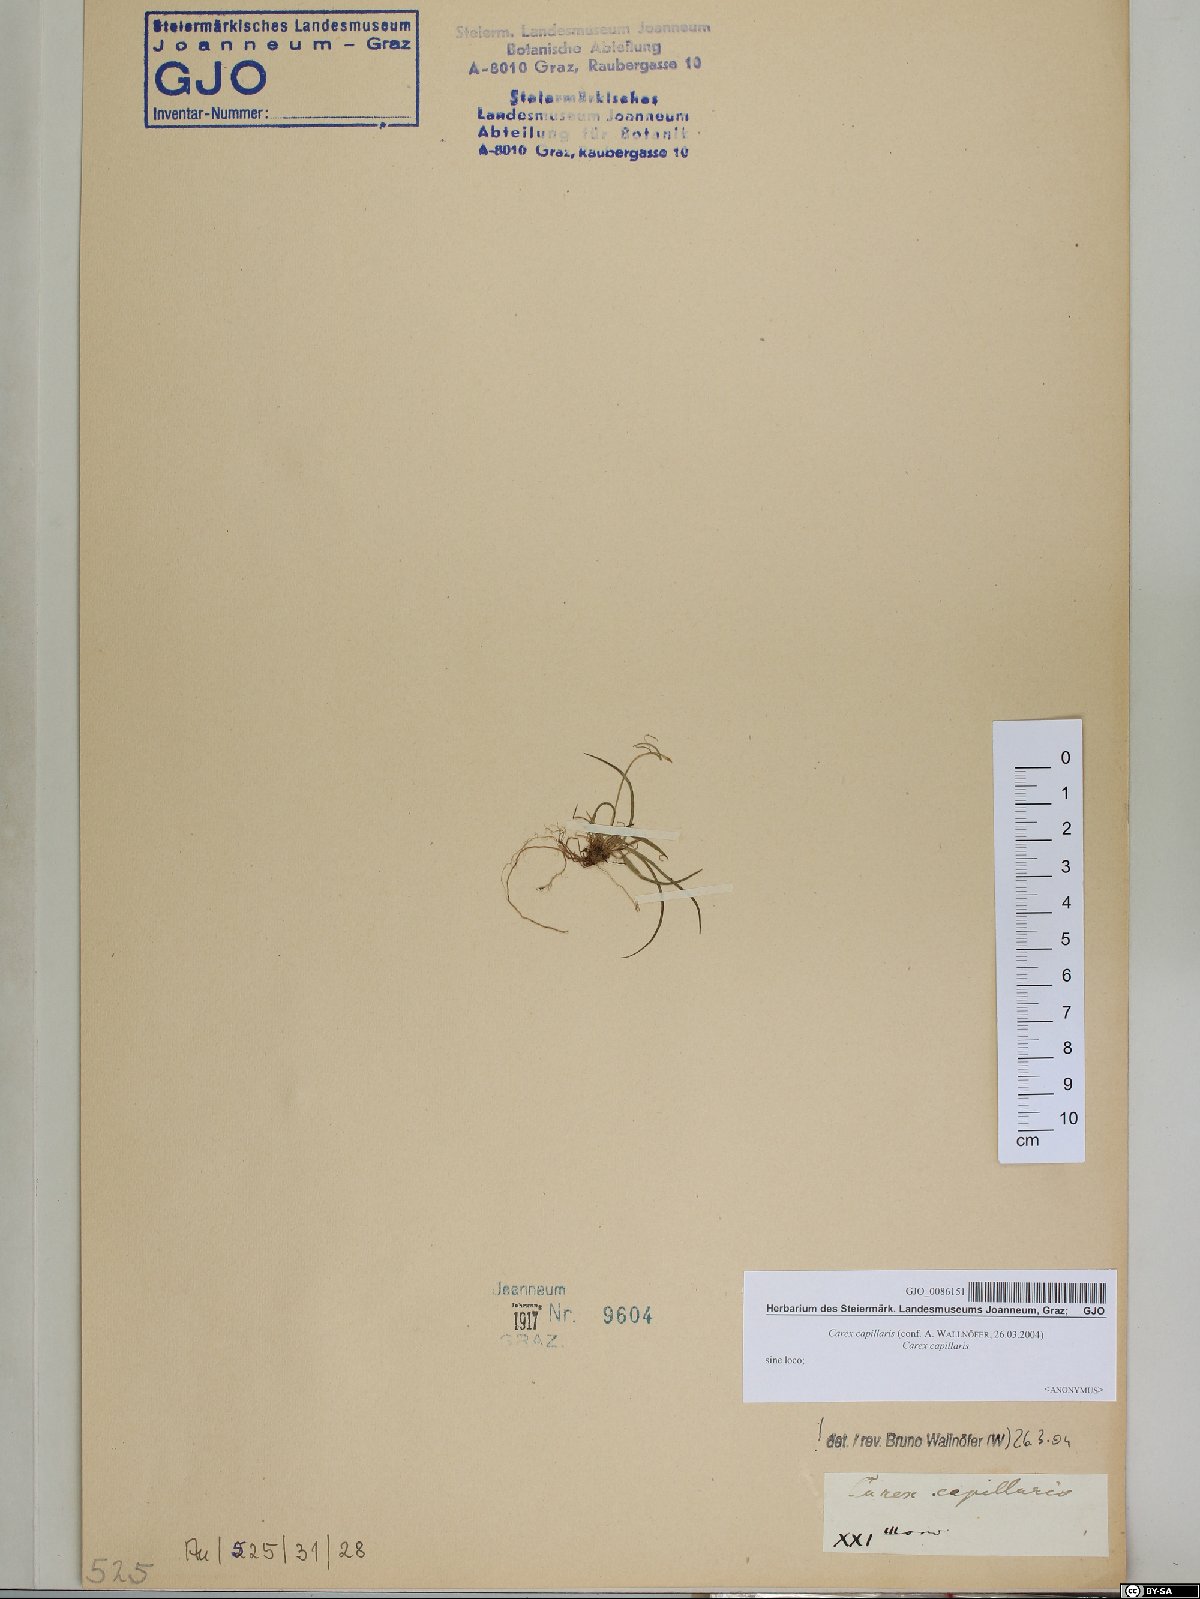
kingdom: Plantae
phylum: Tracheophyta
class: Liliopsida
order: Poales
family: Cyperaceae
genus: Carex
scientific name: Carex capillaris
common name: Hair sedge
